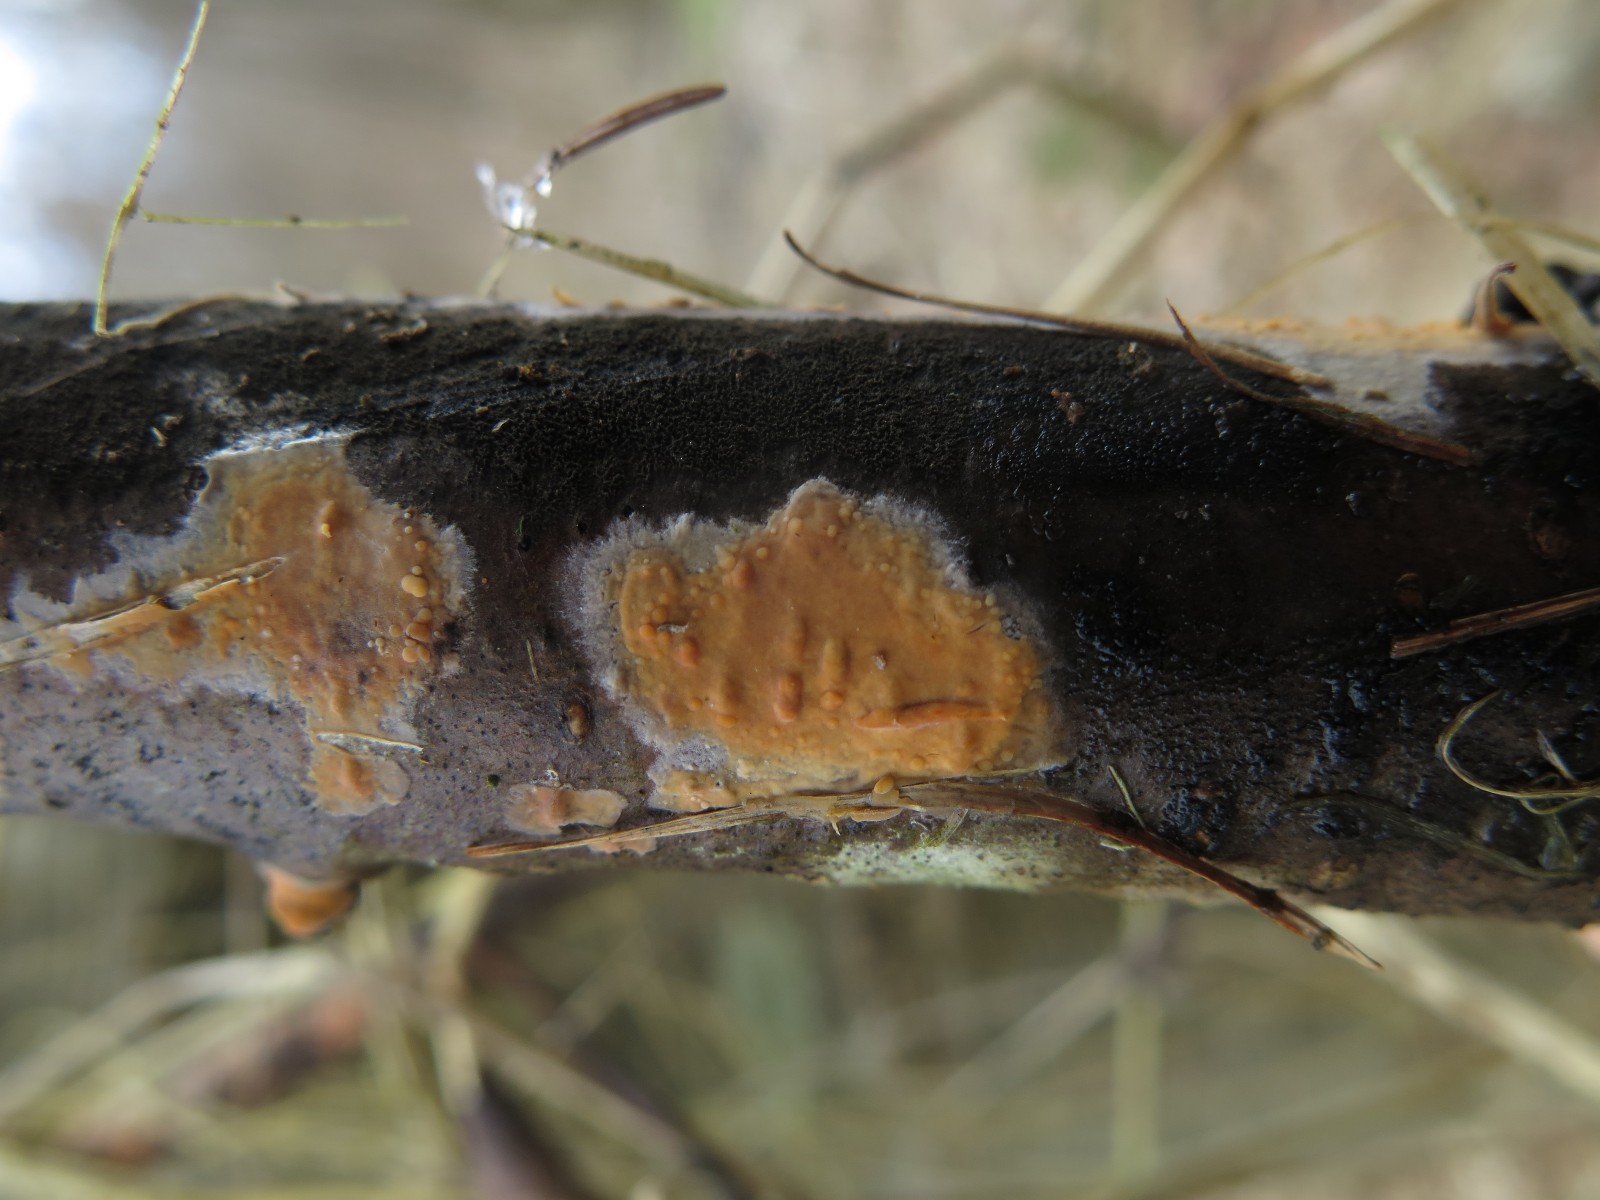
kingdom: Fungi
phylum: Basidiomycota
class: Agaricomycetes
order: Russulales
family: Peniophoraceae
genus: Peniophora
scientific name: Peniophora incarnata
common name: laksefarvet voksskind
